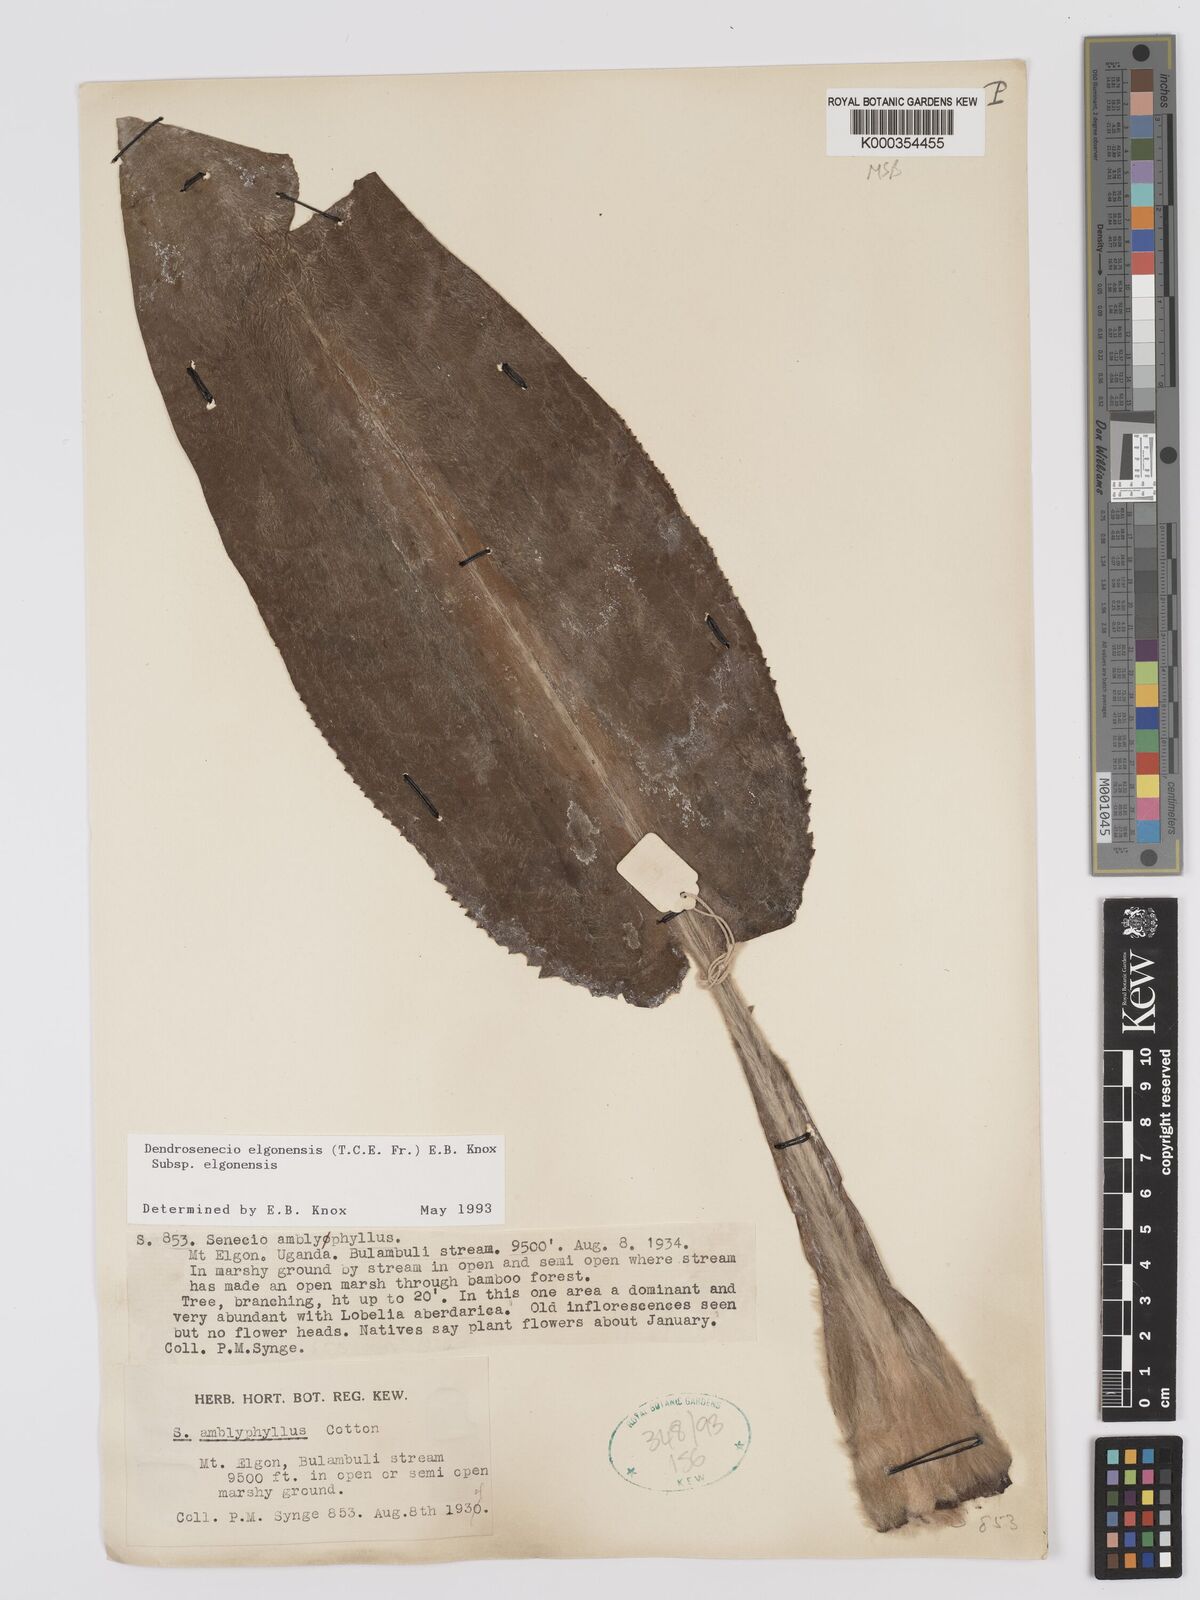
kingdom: Plantae
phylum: Tracheophyta
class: Magnoliopsida
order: Asterales
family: Asteraceae
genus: Dendrosenecio
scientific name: Dendrosenecio elgonensis
